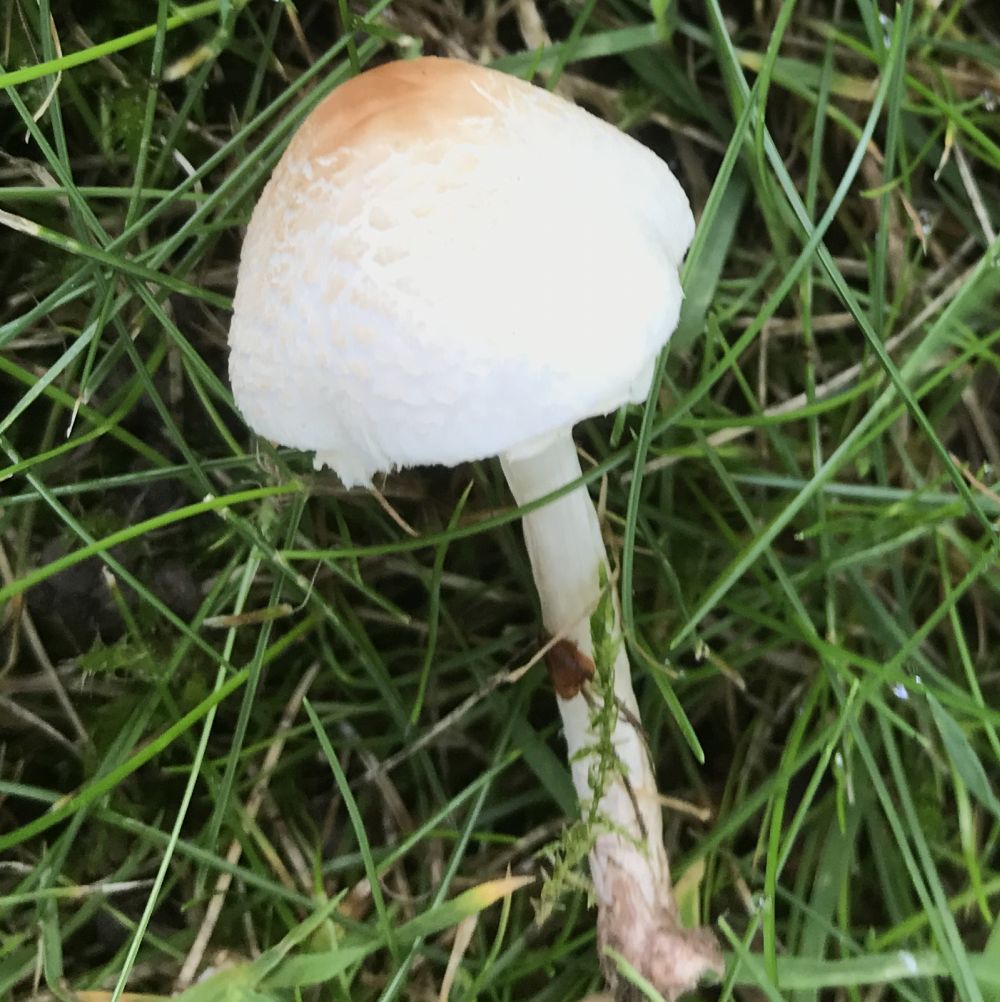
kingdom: Fungi
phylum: Basidiomycota
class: Agaricomycetes
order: Agaricales
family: Agaricaceae
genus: Lepiota
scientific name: Lepiota cristata
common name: stinkende parasolhat
